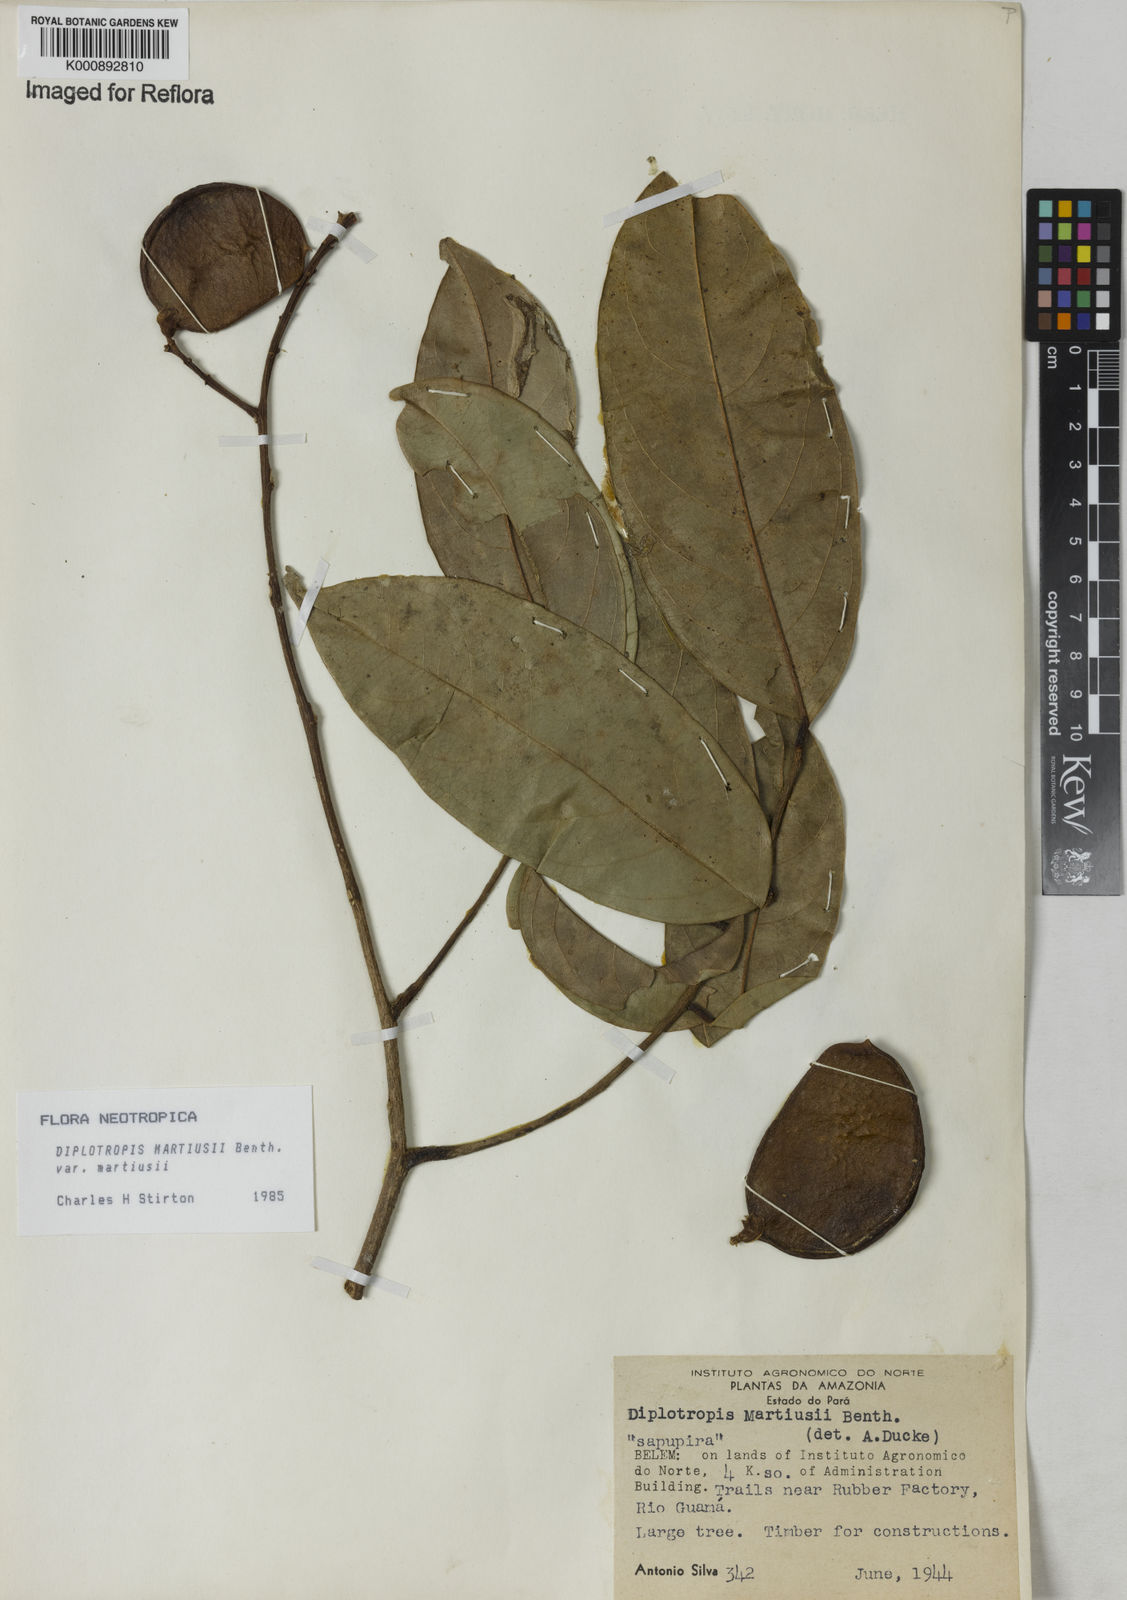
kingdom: Plantae
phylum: Tracheophyta
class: Magnoliopsida
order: Fabales
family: Fabaceae
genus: Diplotropis
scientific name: Diplotropis
